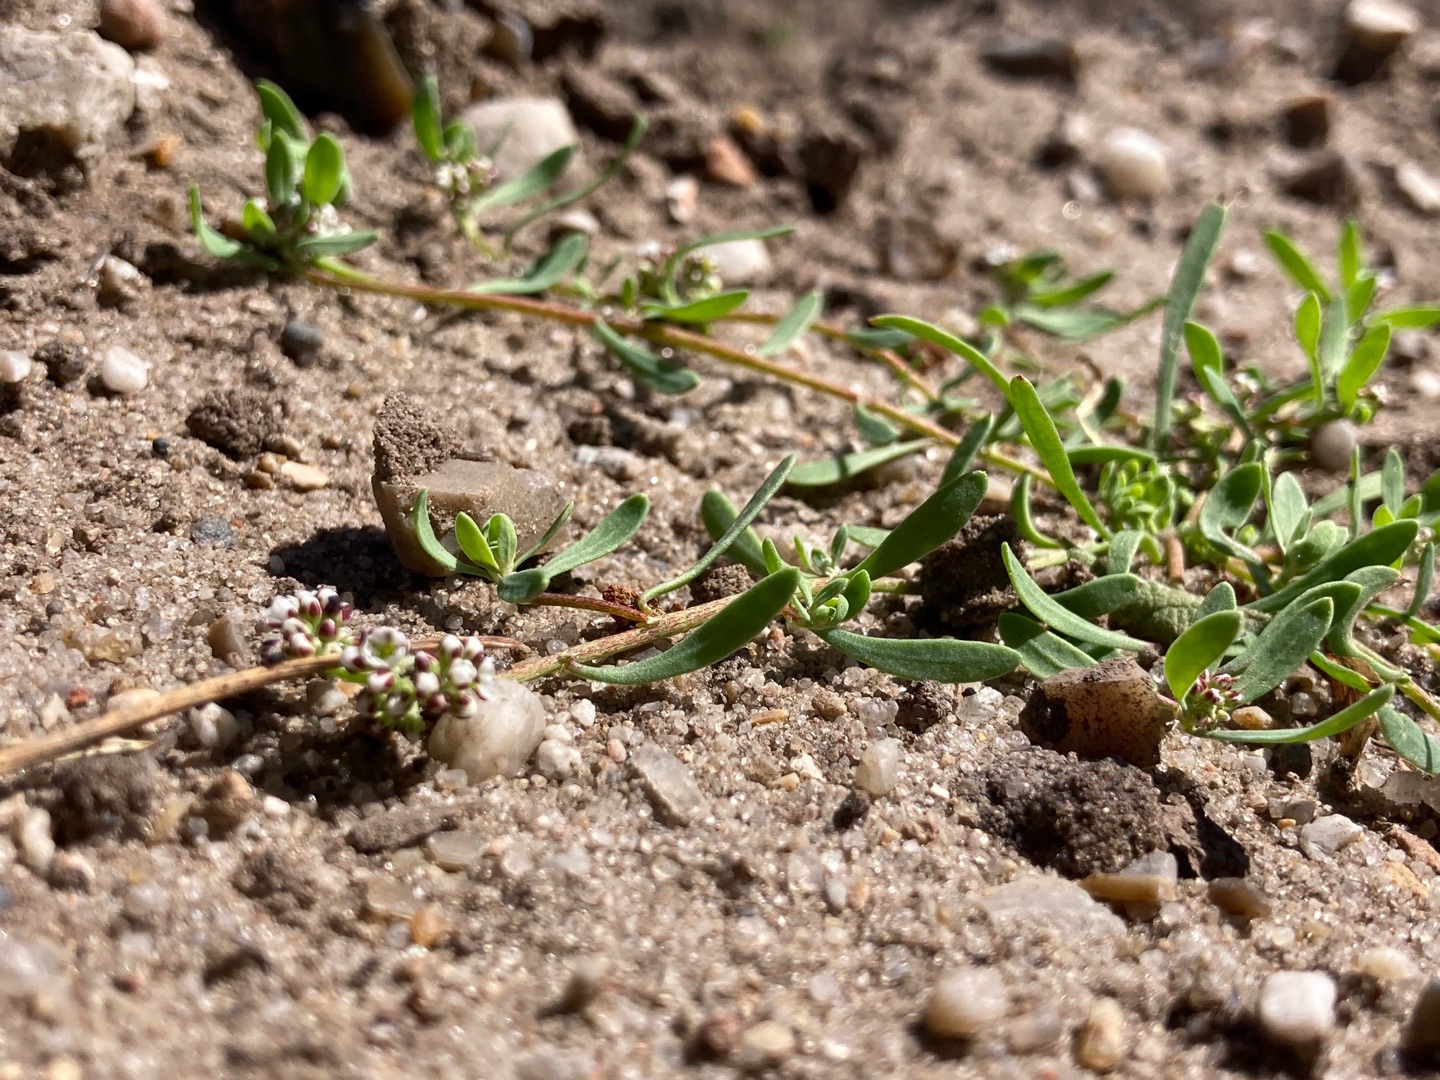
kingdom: Plantae
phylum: Tracheophyta
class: Magnoliopsida
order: Caryophyllales
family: Caryophyllaceae
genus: Corrigiola
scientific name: Corrigiola litoralis
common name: Skorem
